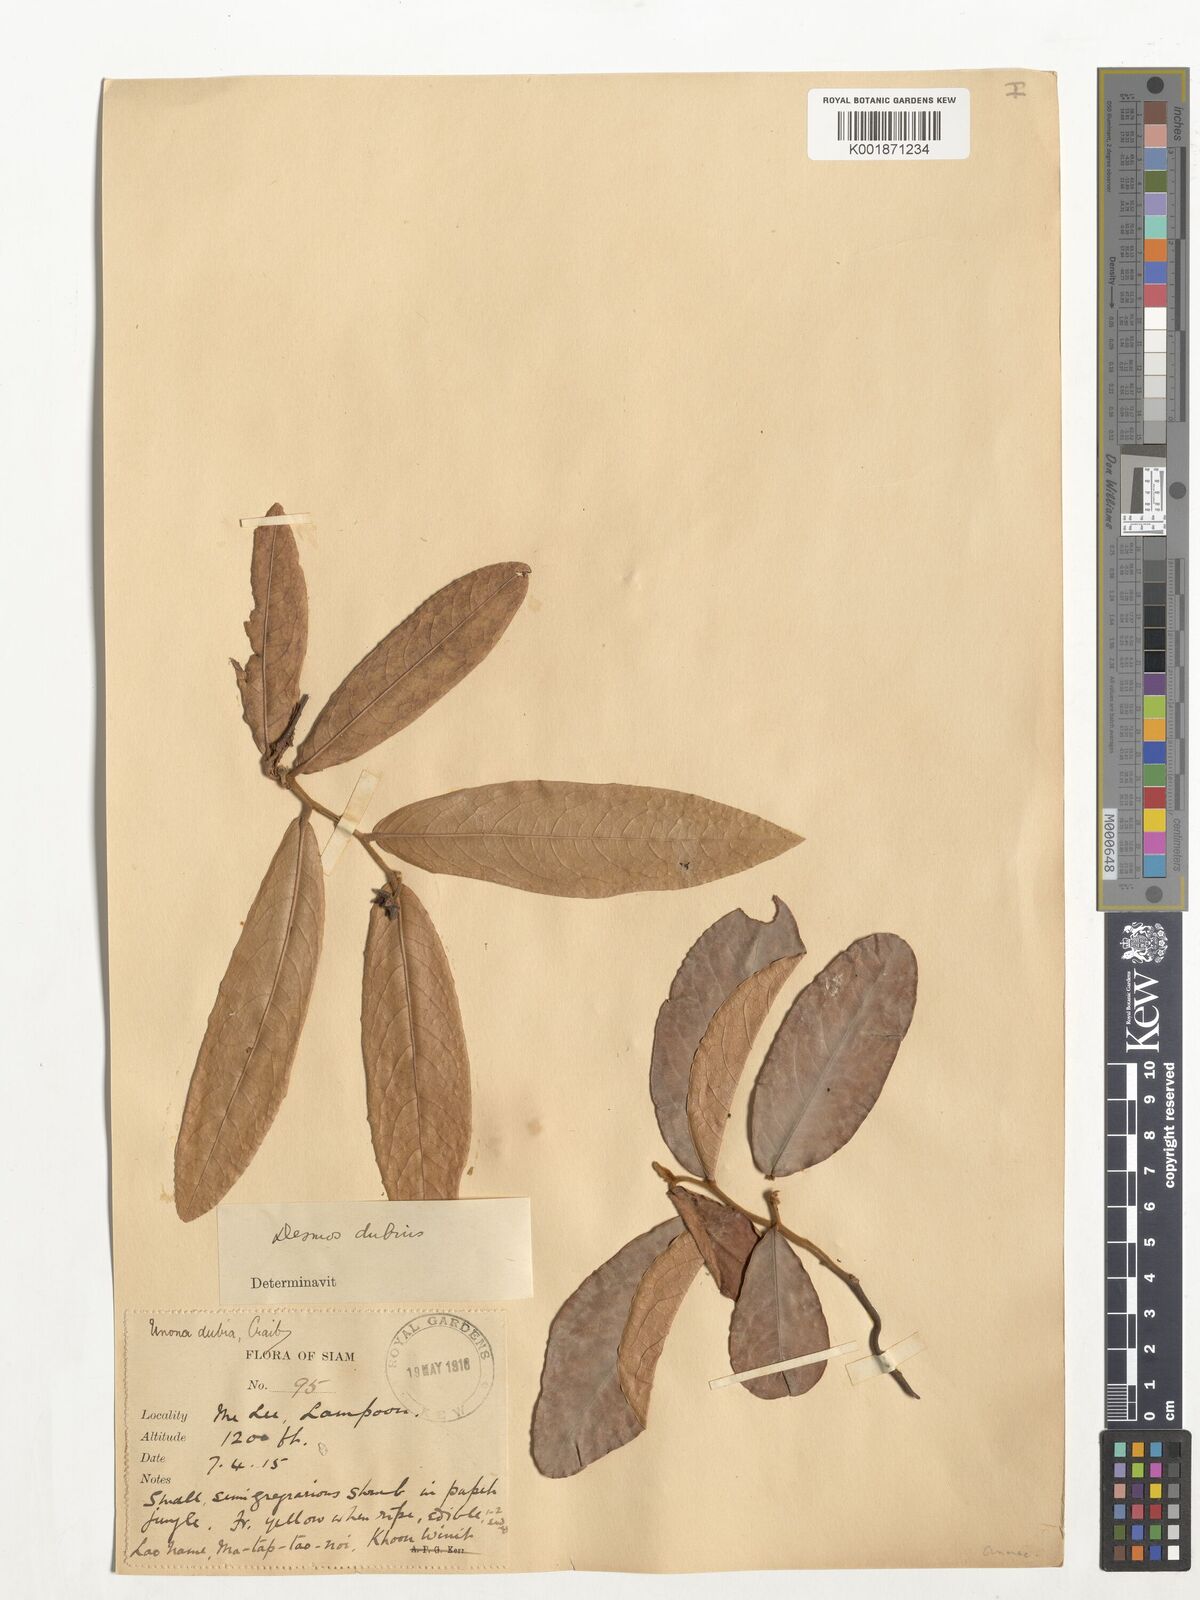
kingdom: Plantae
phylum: Tracheophyta
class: Magnoliopsida
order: Magnoliales
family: Annonaceae
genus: Polyalthia
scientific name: Polyalthia
